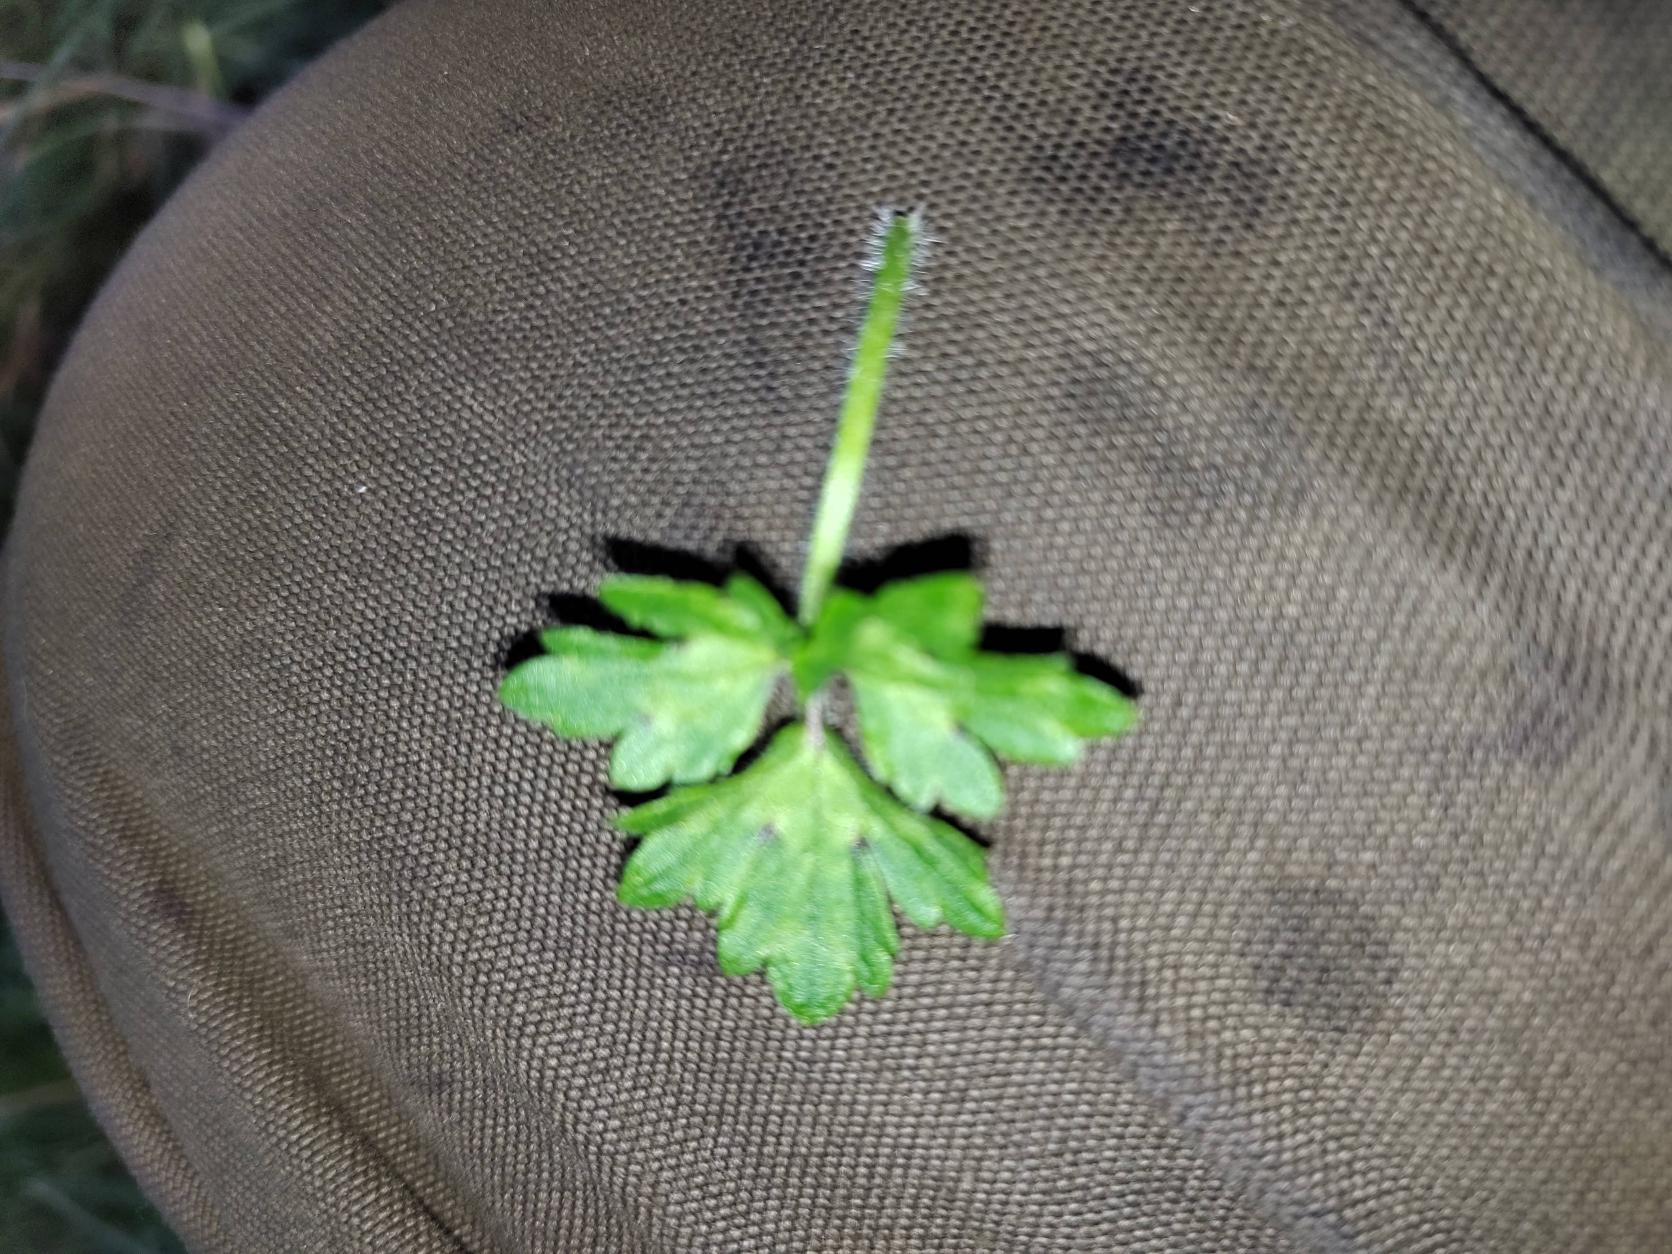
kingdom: Plantae
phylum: Tracheophyta
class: Magnoliopsida
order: Ranunculales
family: Ranunculaceae
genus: Ranunculus
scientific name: Ranunculus repens
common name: Lav ranunkel
